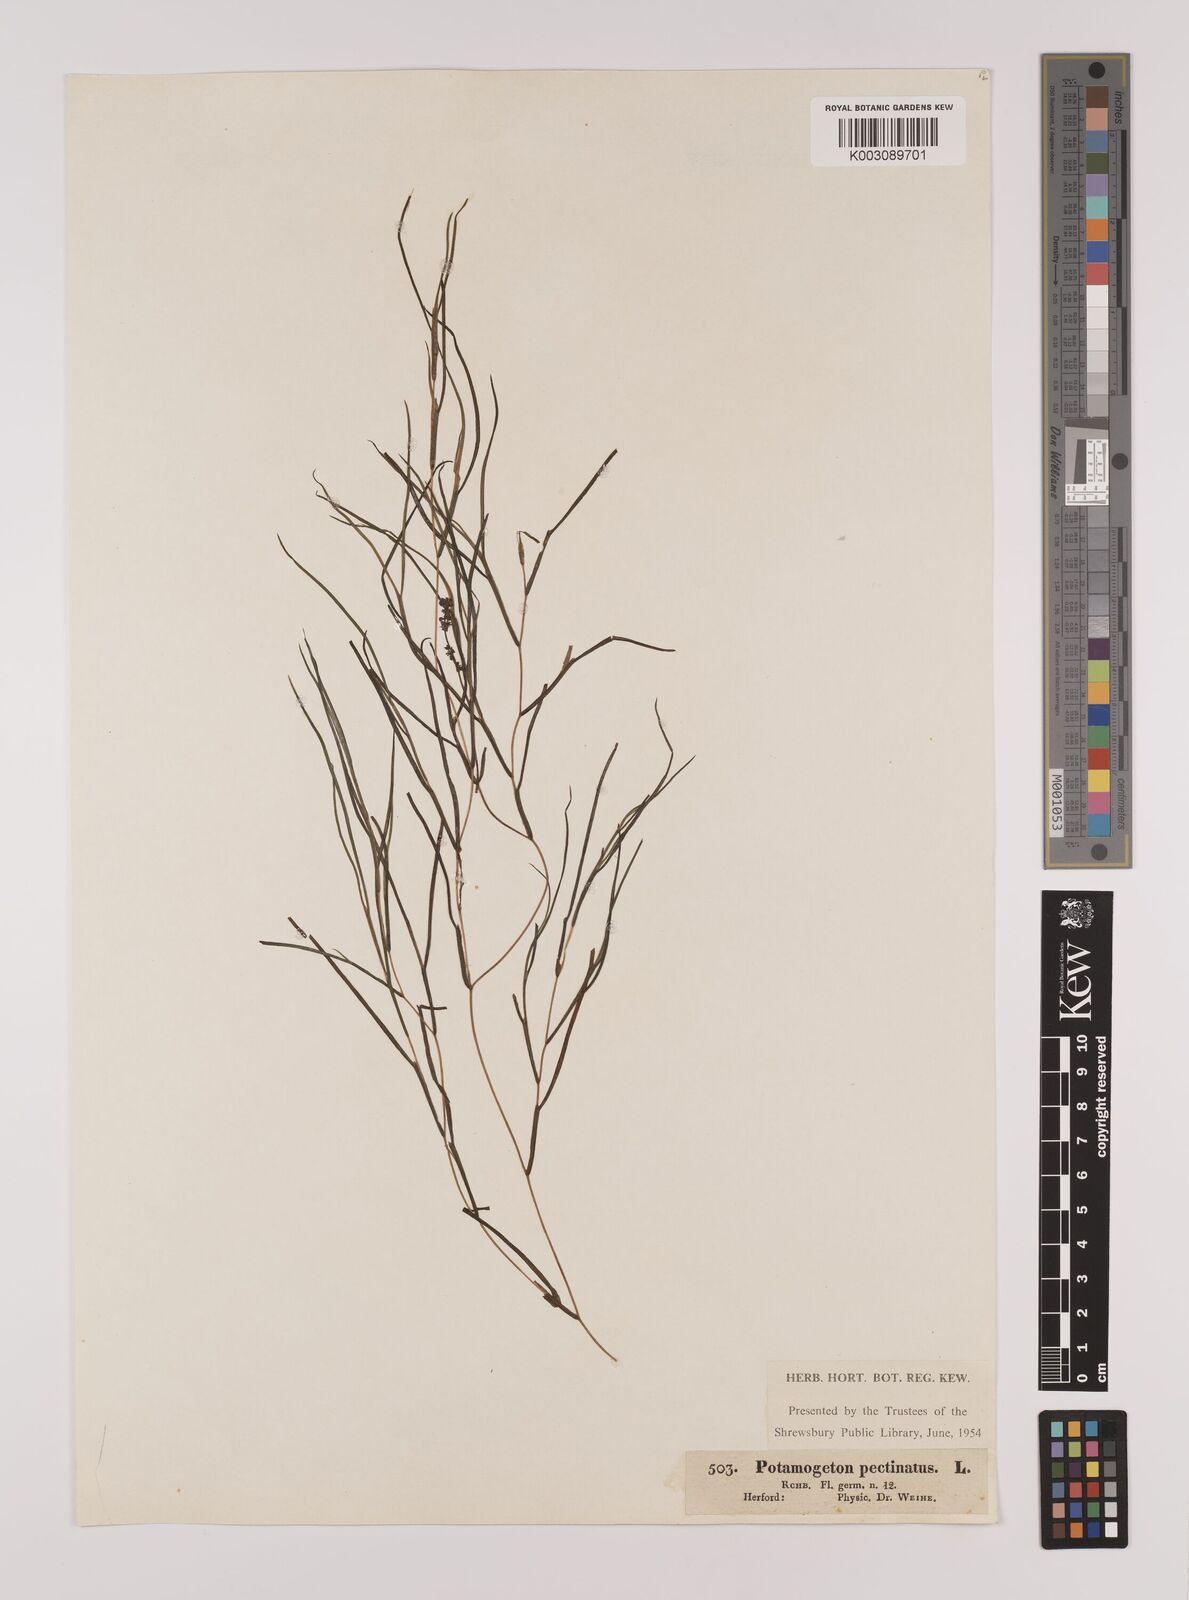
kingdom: Plantae
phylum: Tracheophyta
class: Liliopsida
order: Alismatales
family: Potamogetonaceae
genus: Stuckenia
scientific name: Stuckenia pectinata
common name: Sago pondweed
